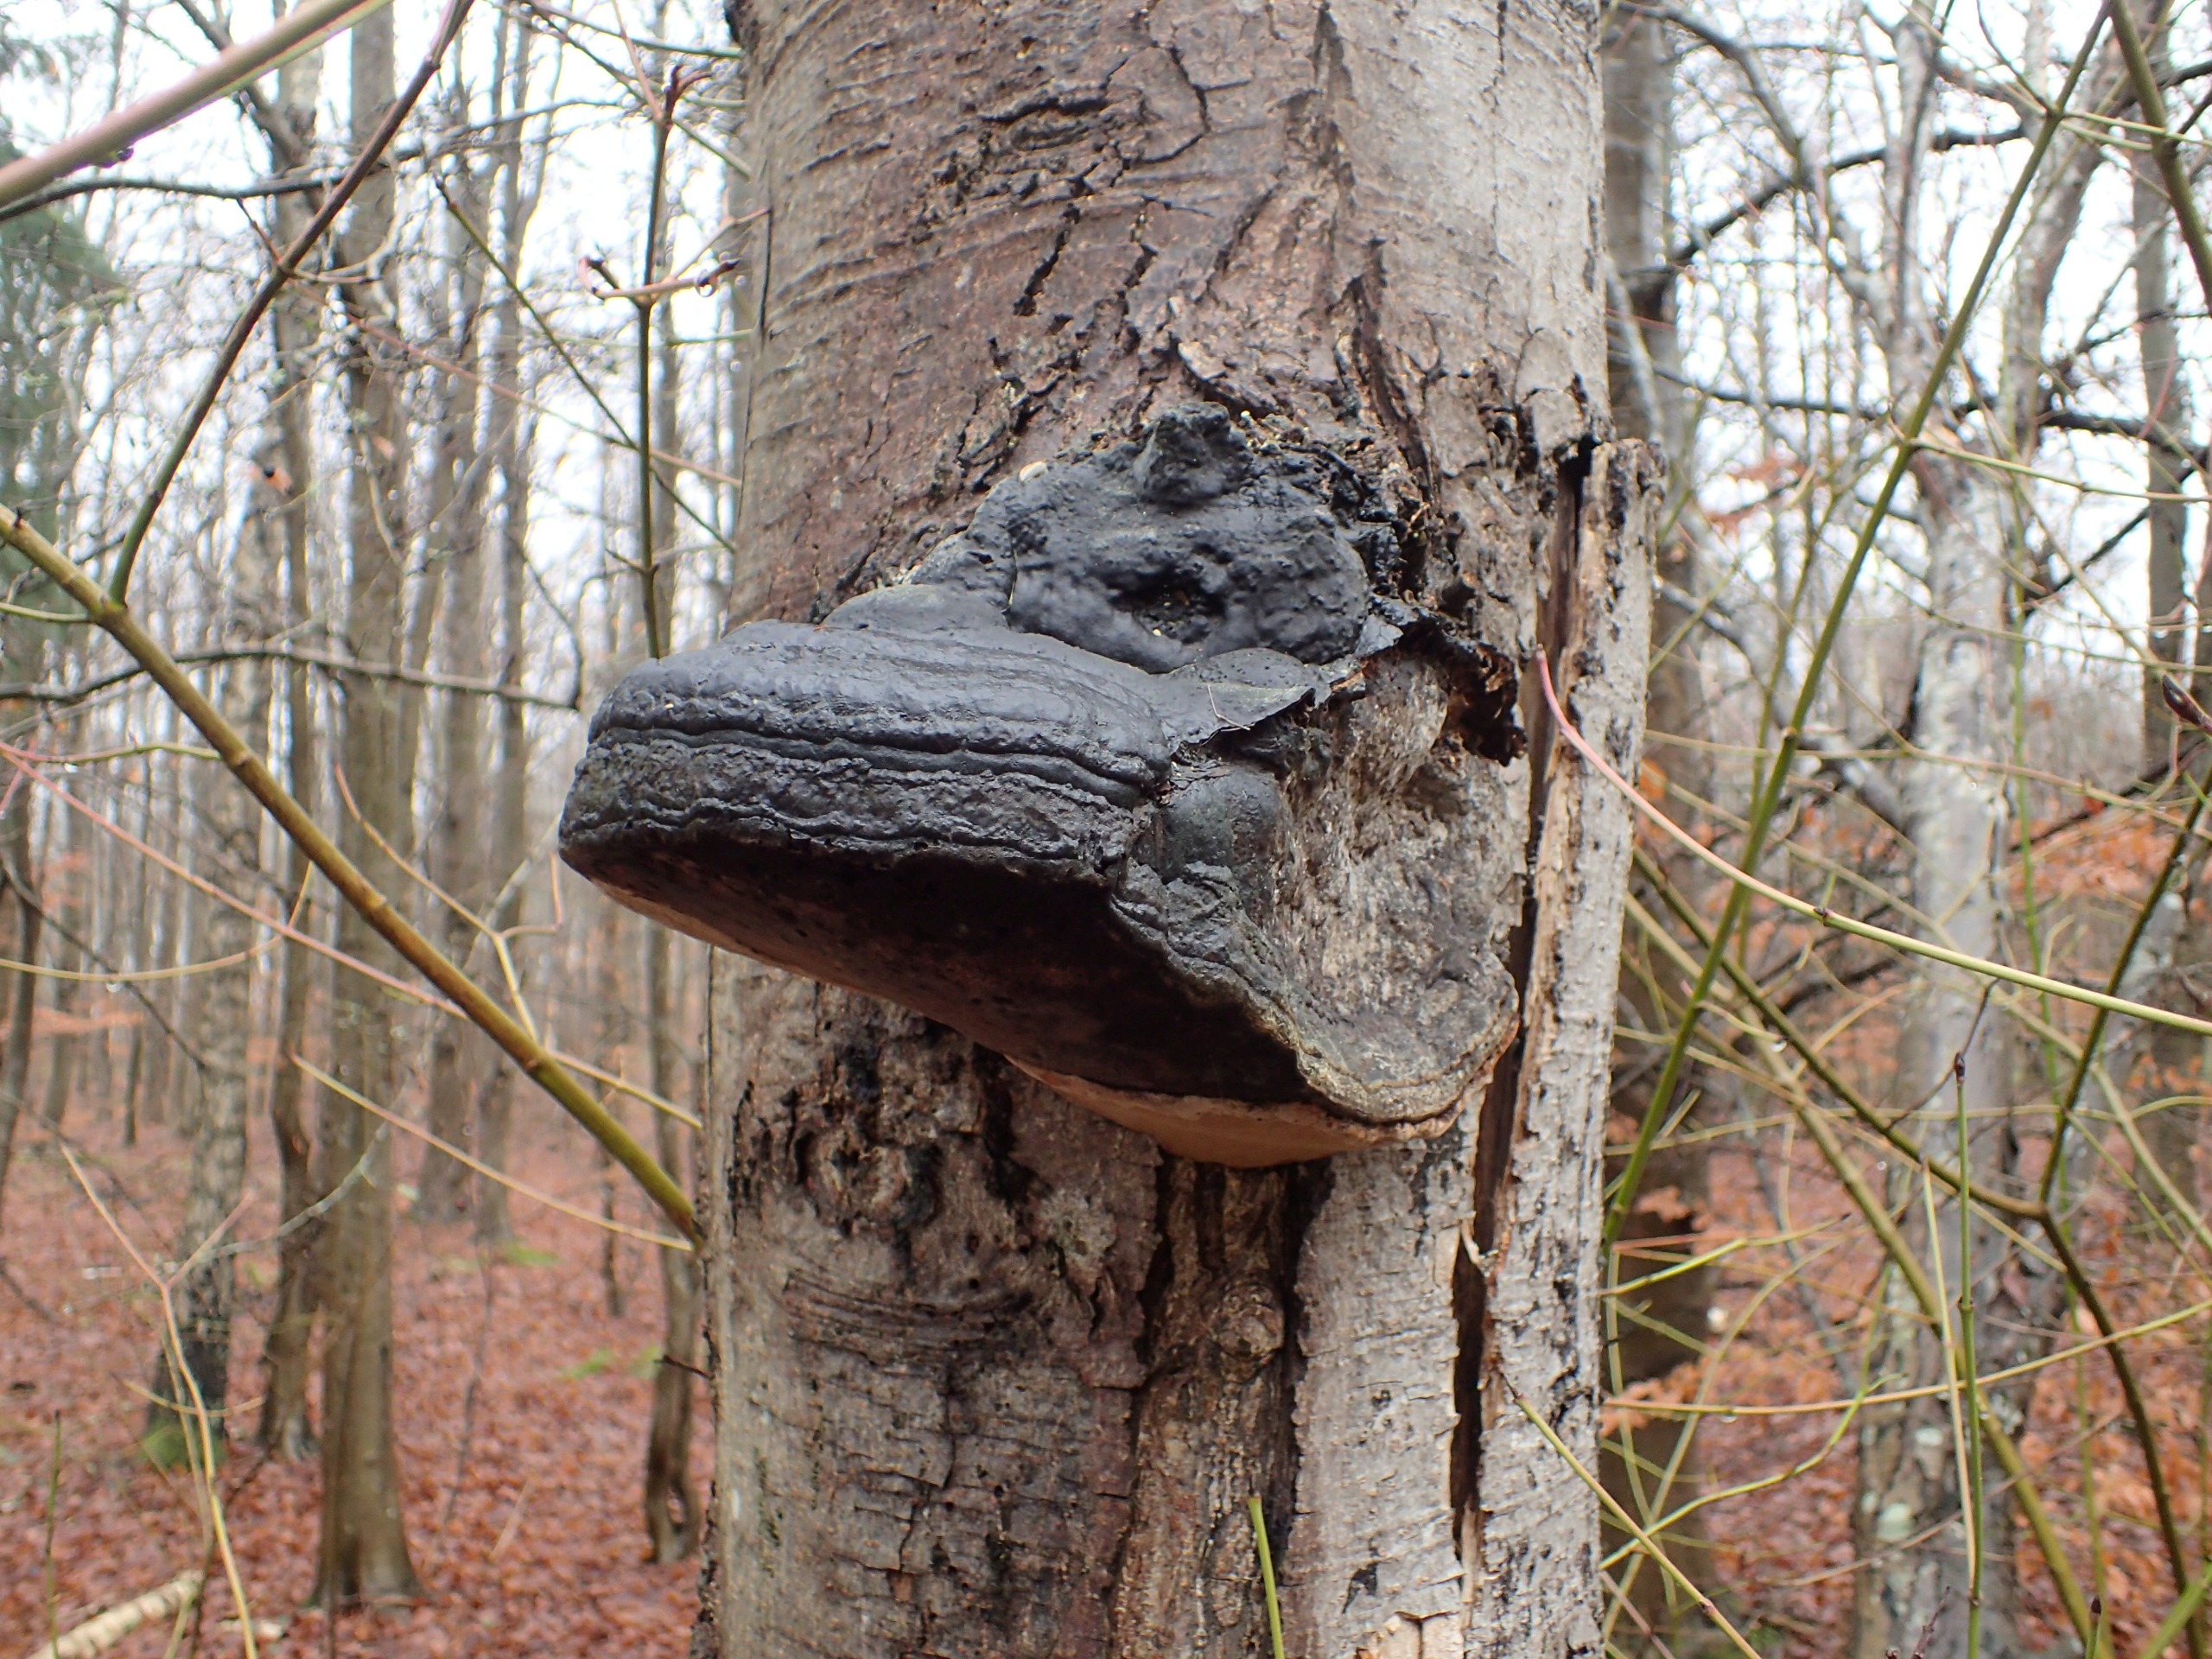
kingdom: Fungi
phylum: Basidiomycota
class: Agaricomycetes
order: Polyporales
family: Polyporaceae
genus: Fomes
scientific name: Fomes fomentarius
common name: Tøndersvamp
